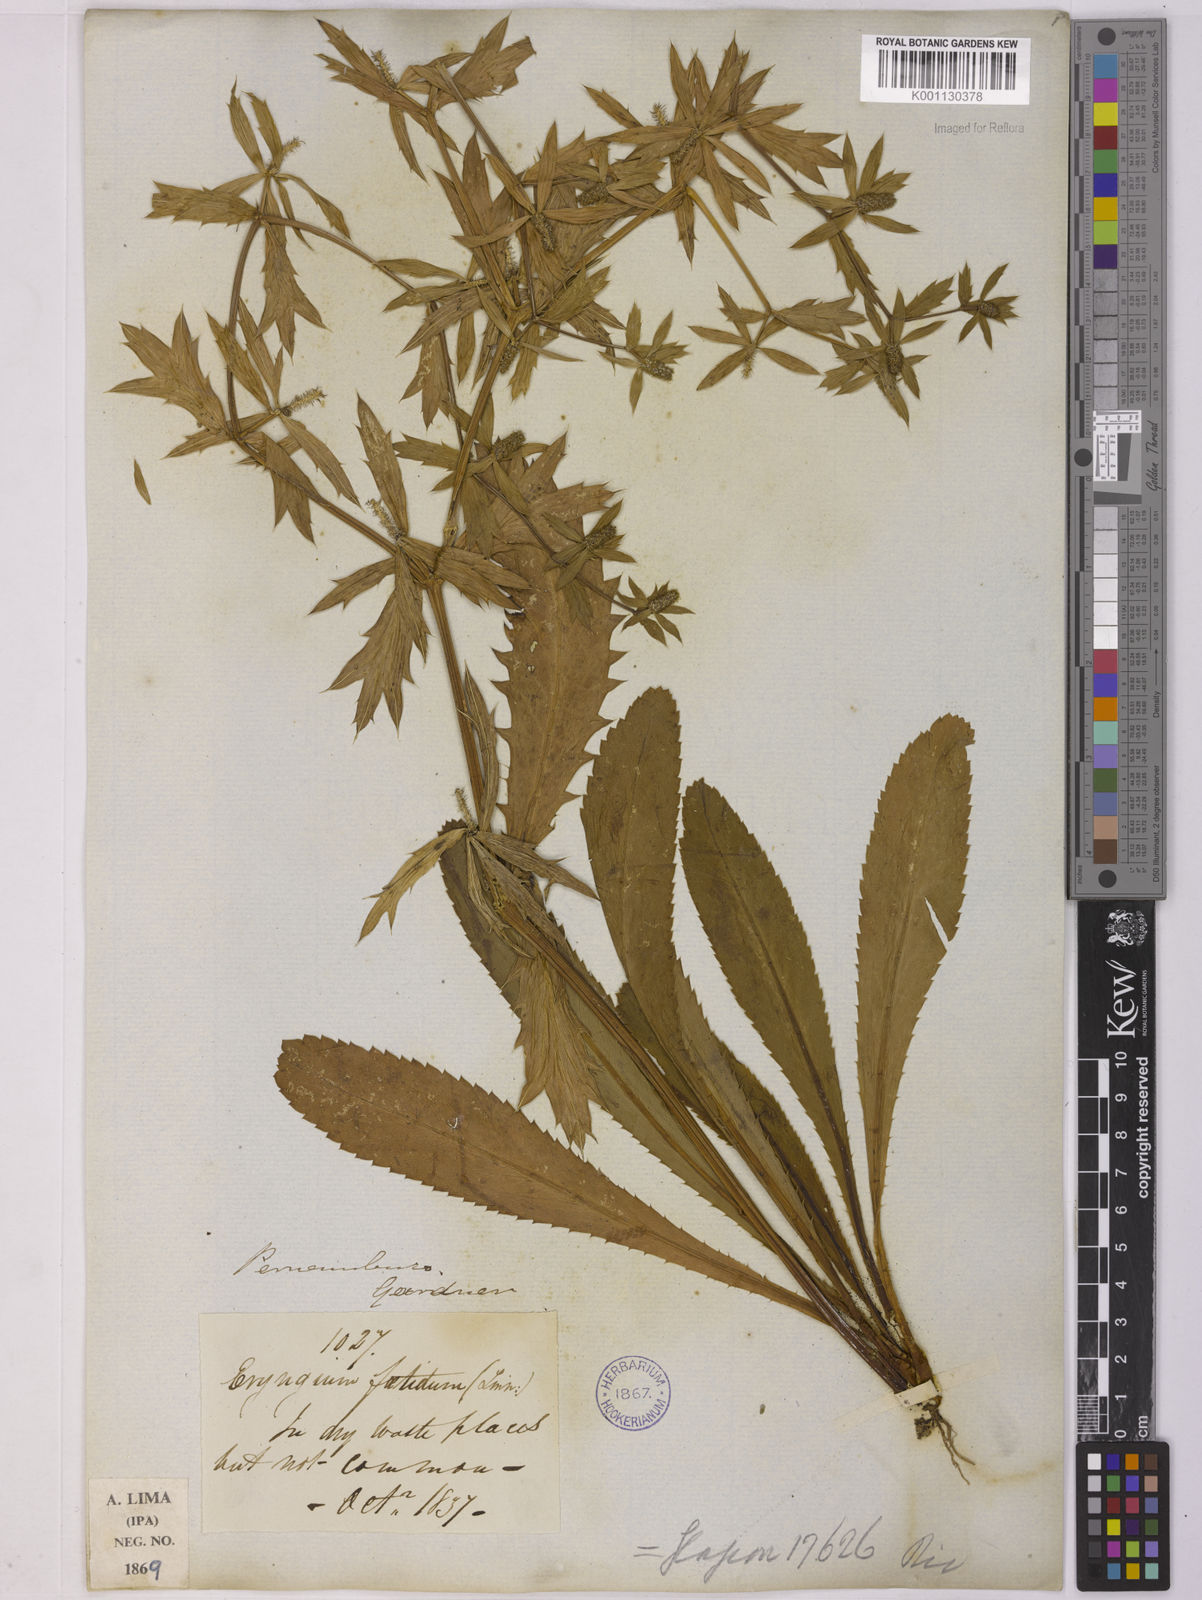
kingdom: Plantae
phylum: Tracheophyta
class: Magnoliopsida
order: Apiales
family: Apiaceae
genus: Eryngium
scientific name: Eryngium foetidum
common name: Fitweed
